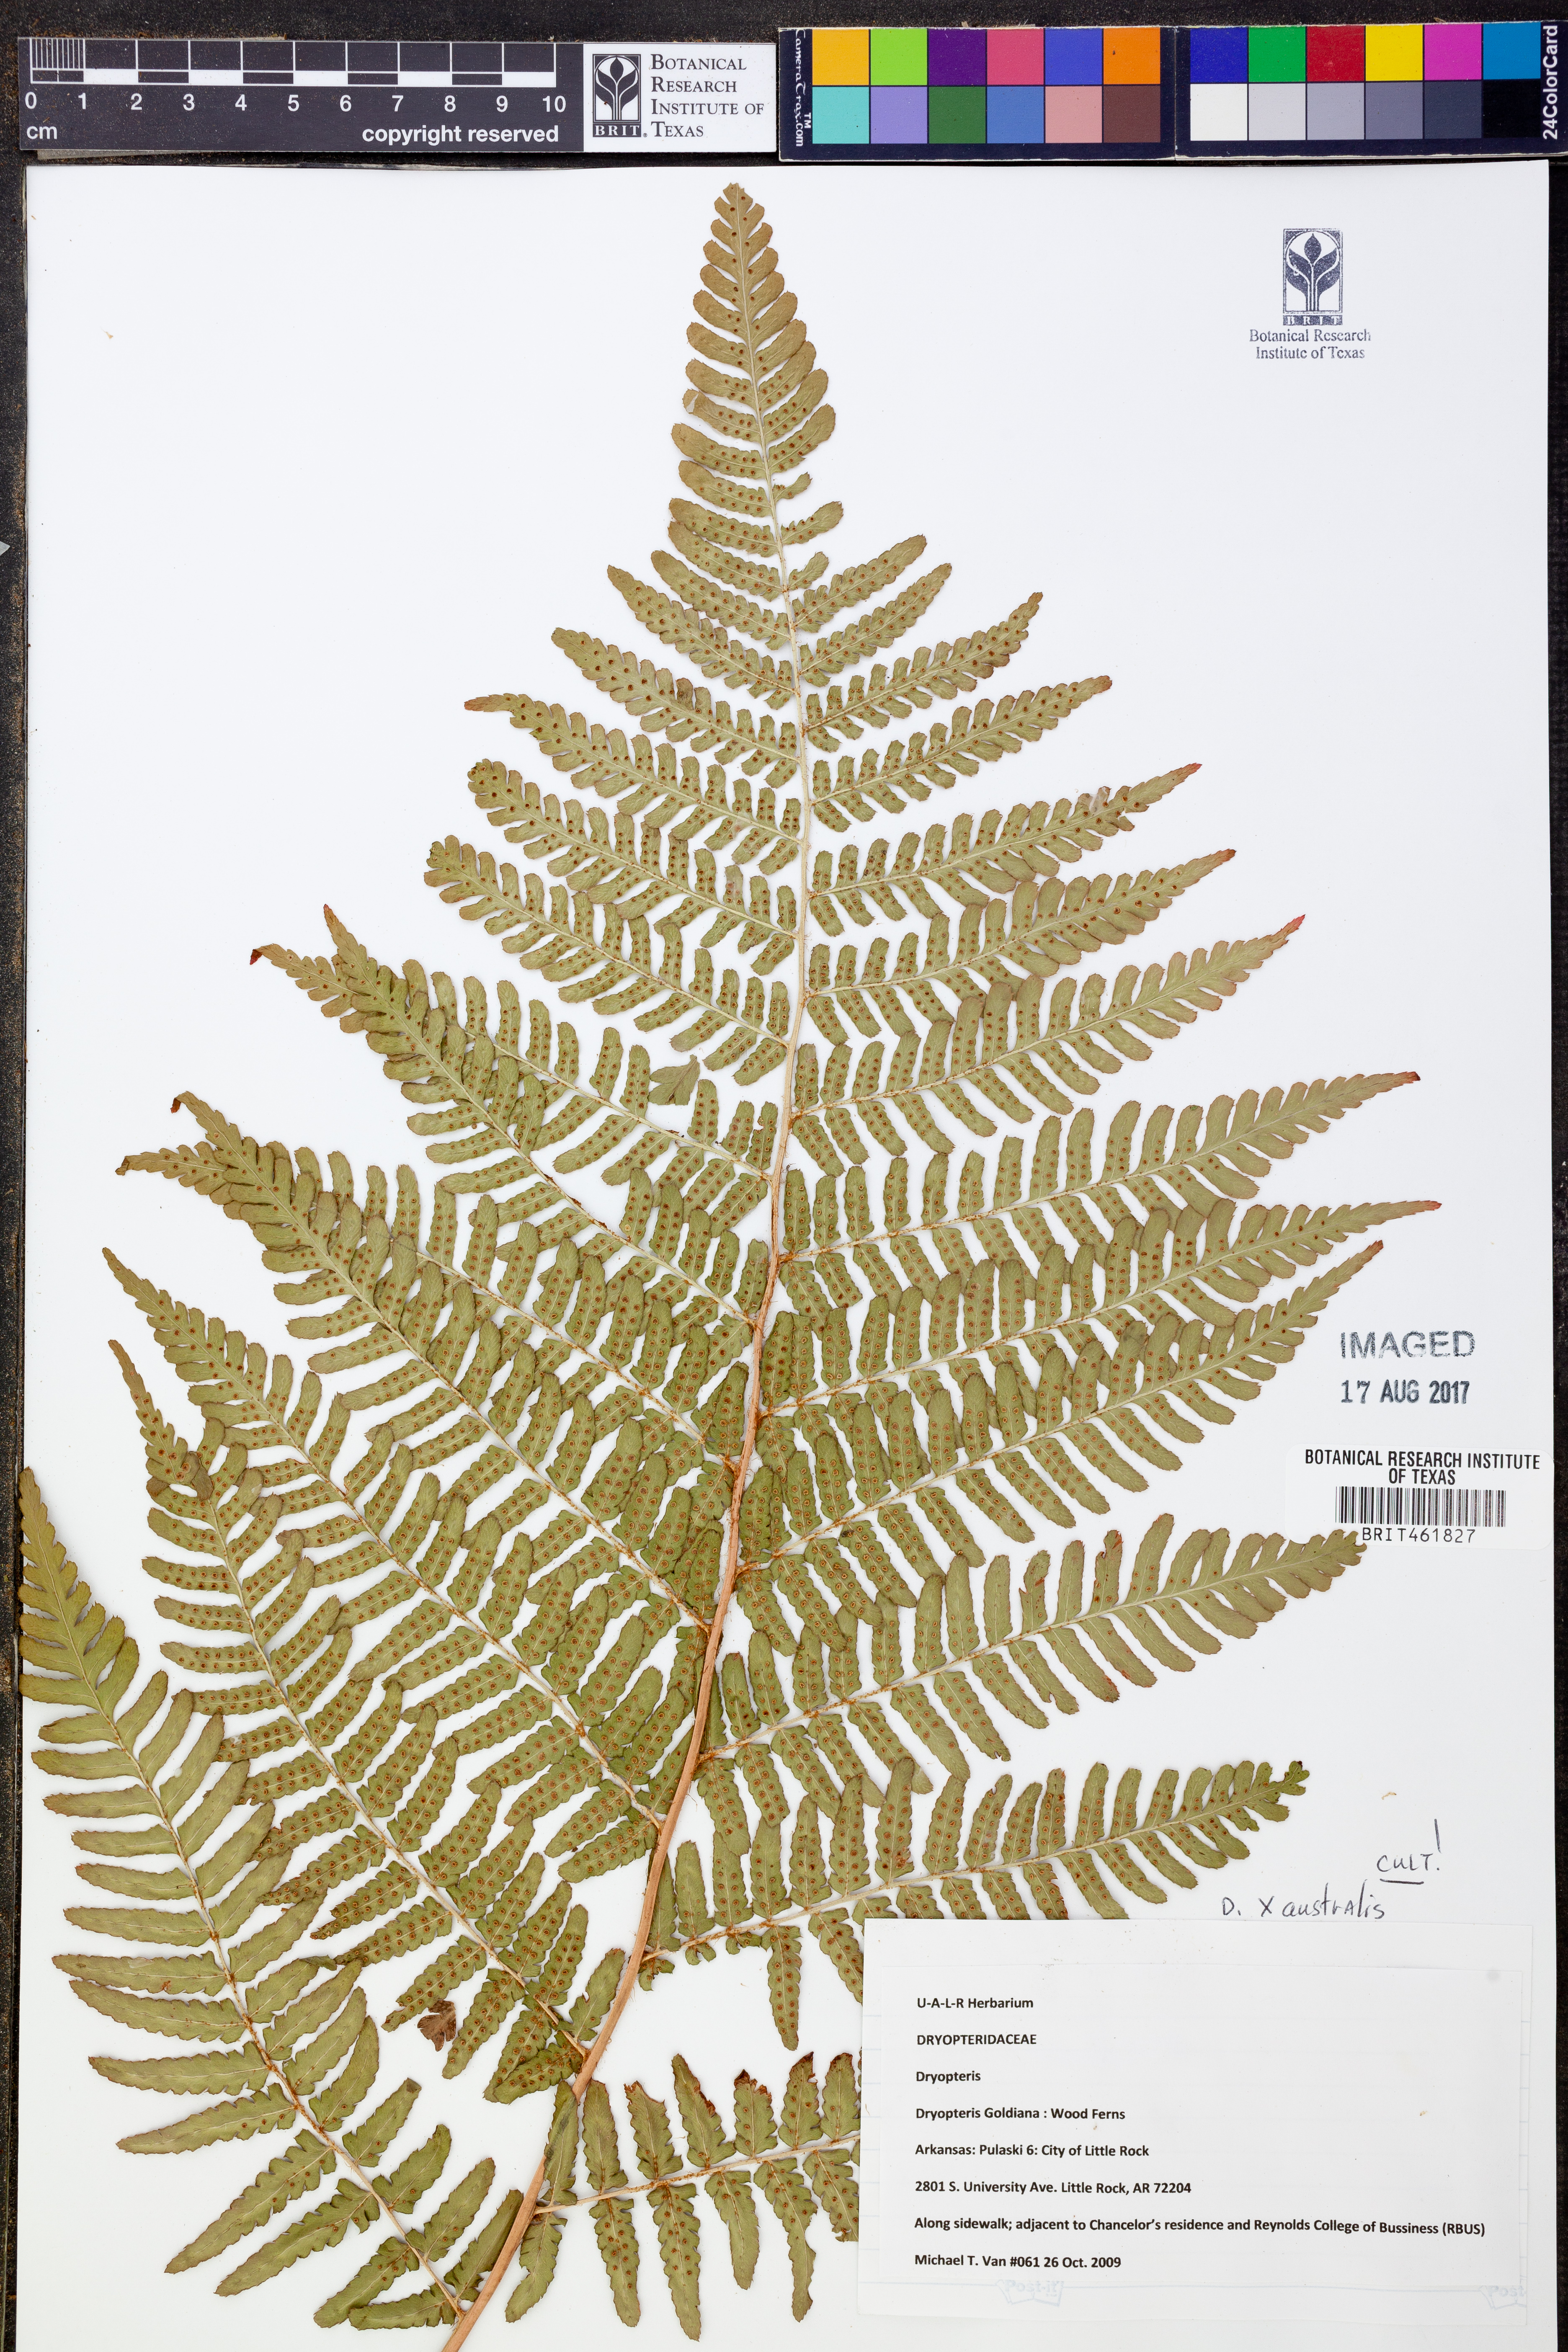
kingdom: Plantae
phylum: Tracheophyta
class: Polypodiopsida
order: Polypodiales
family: Dryopteridaceae
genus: Dryopteris
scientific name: Dryopteris goeldiana
